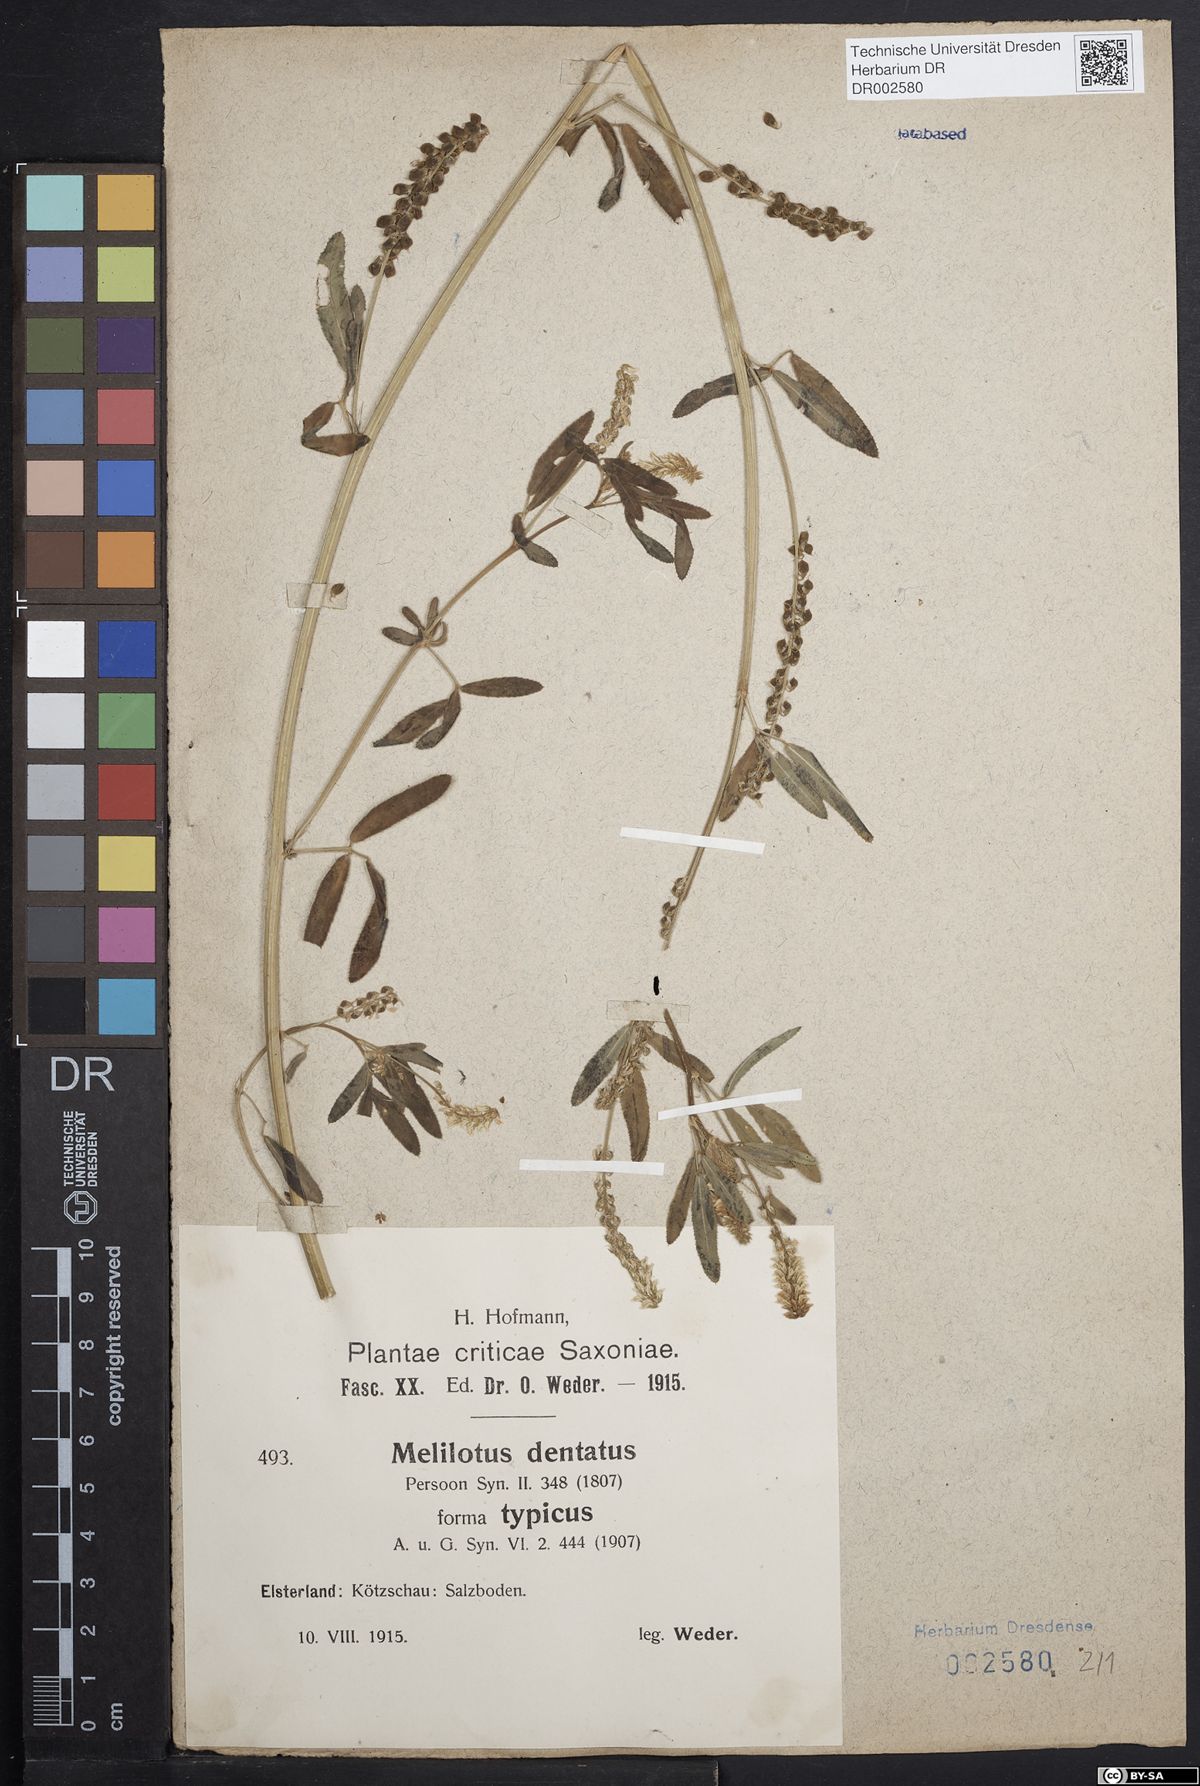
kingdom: Plantae
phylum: Tracheophyta
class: Magnoliopsida
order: Fabales
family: Fabaceae
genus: Melilotus
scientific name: Melilotus dentatus
